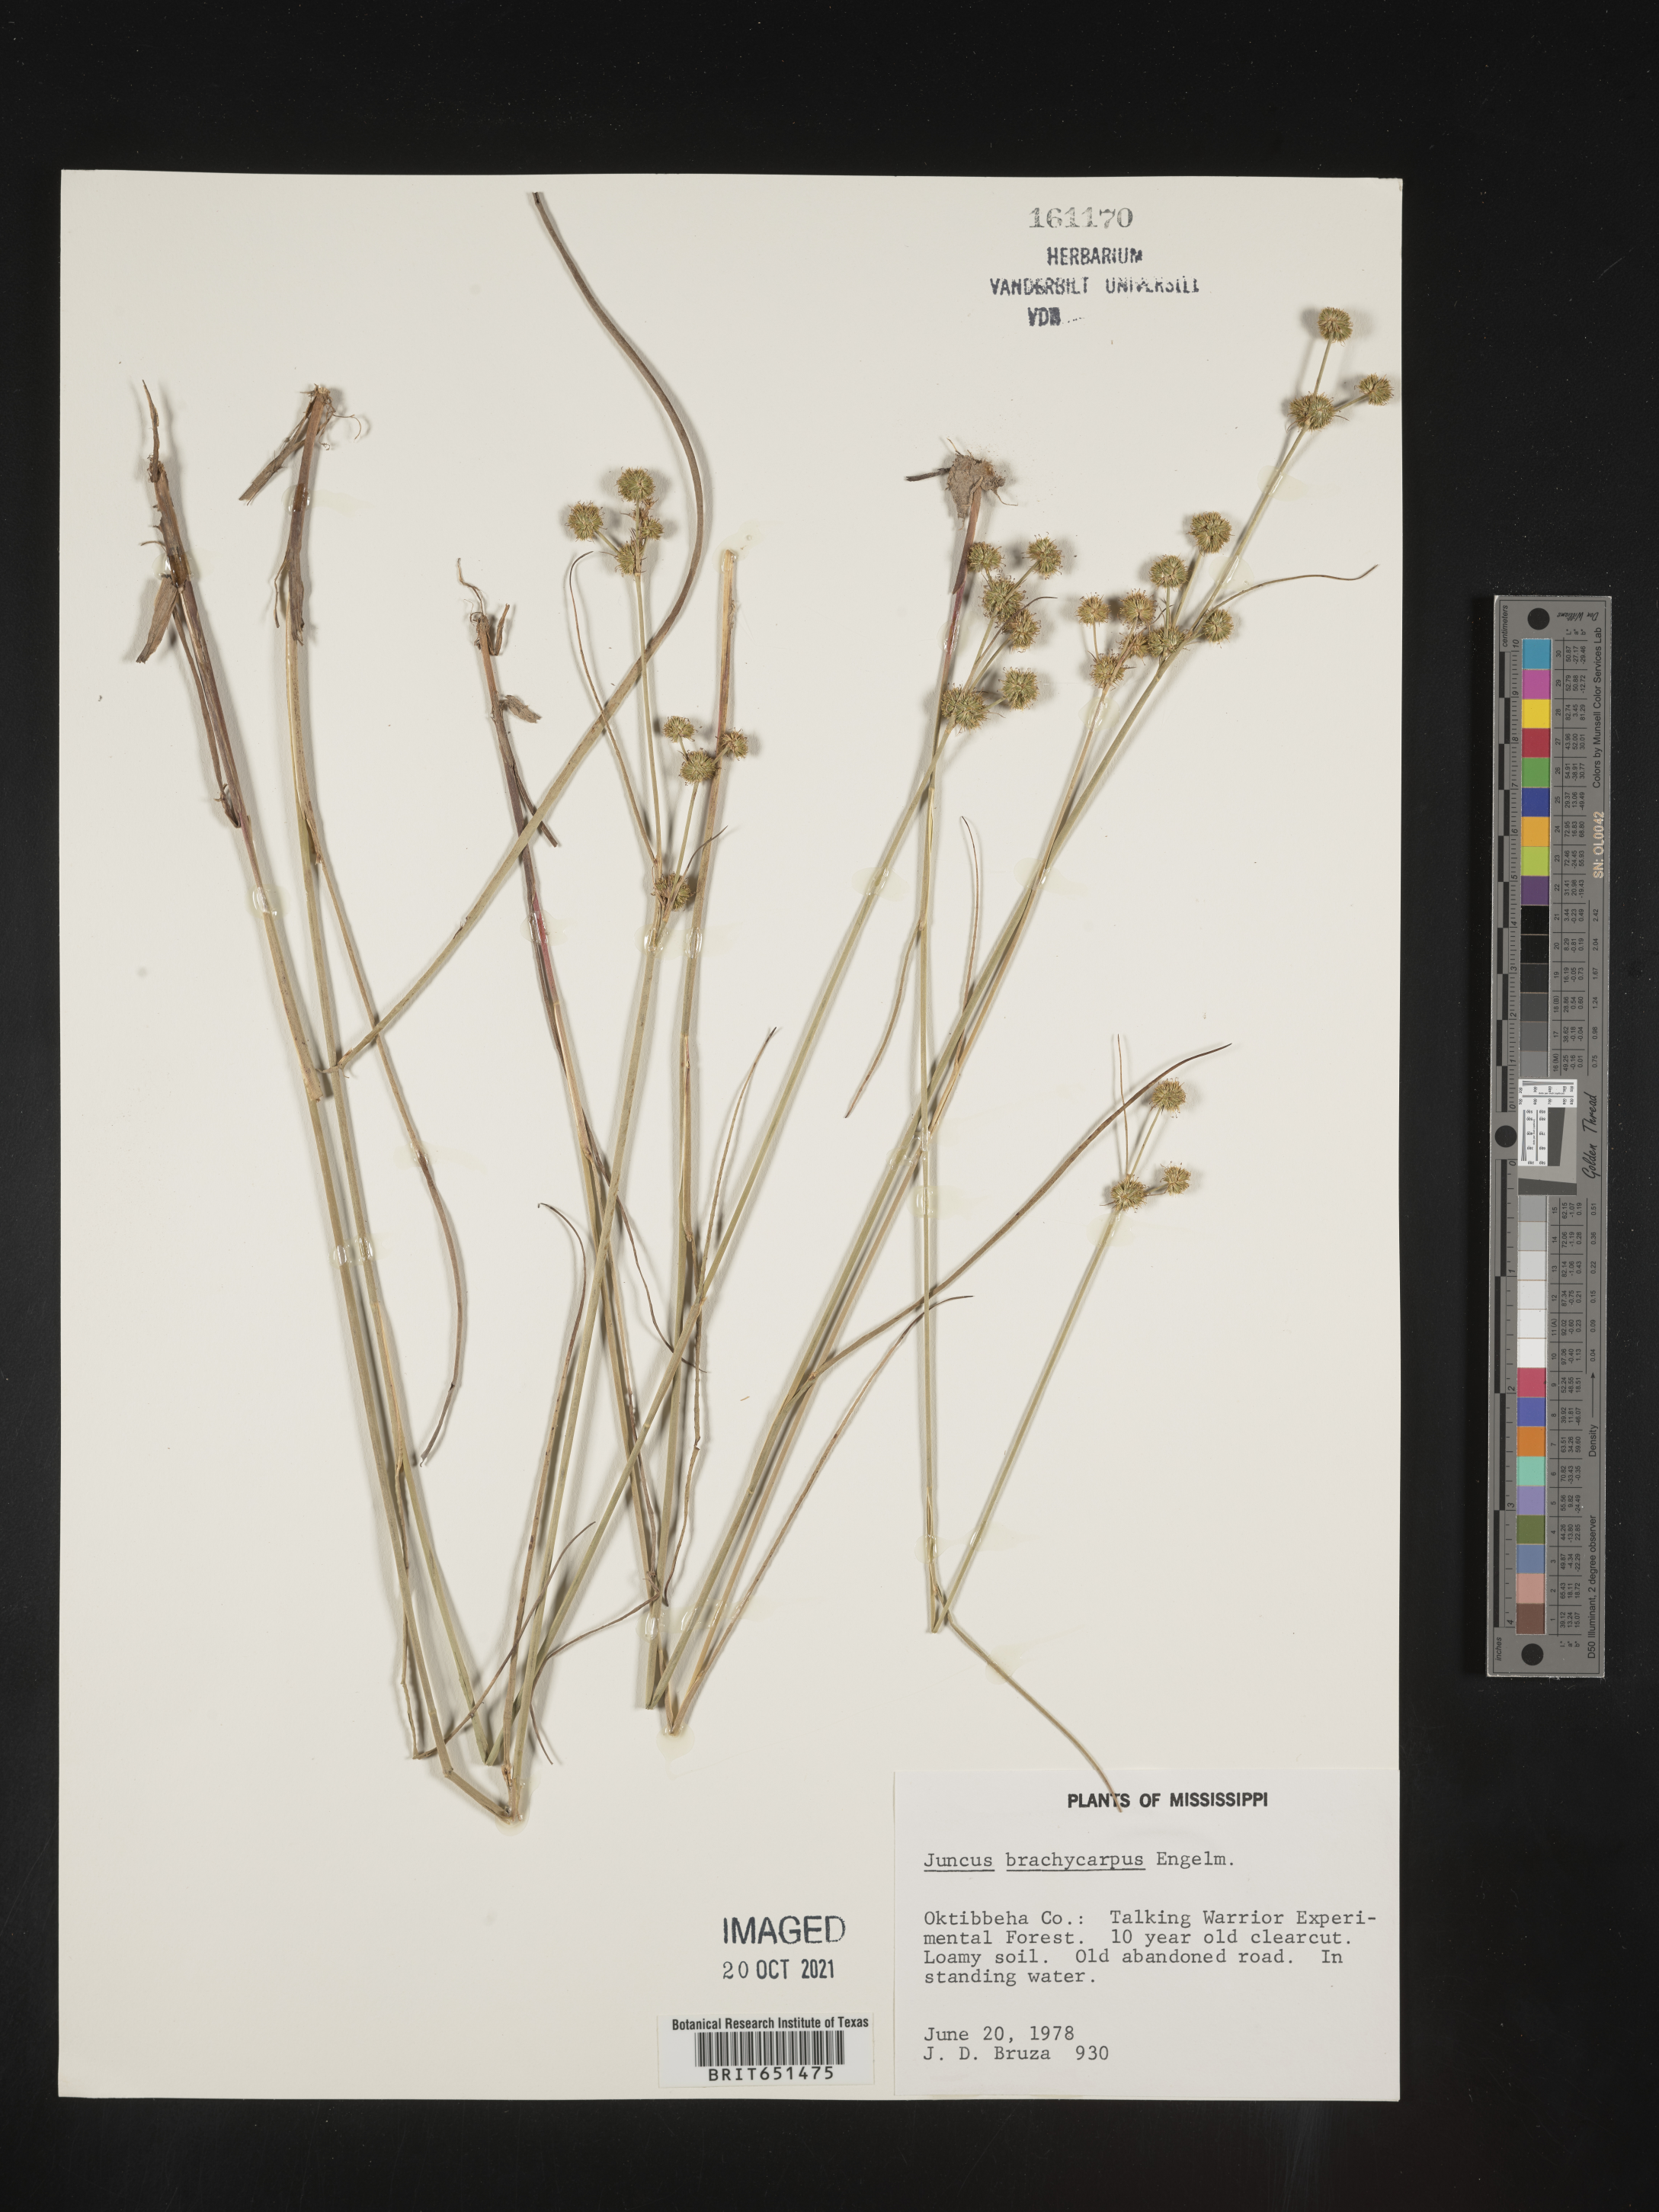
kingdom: Plantae
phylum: Tracheophyta
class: Liliopsida
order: Poales
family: Juncaceae
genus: Juncus
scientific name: Juncus brachycarpus
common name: Shore rush
